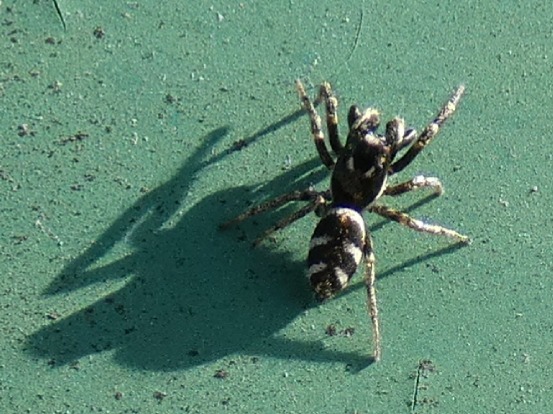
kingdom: Animalia
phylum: Arthropoda
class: Arachnida
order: Araneae
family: Salticidae
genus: Salticus
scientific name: Salticus scenicus
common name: Almindelig zebraedderkop
